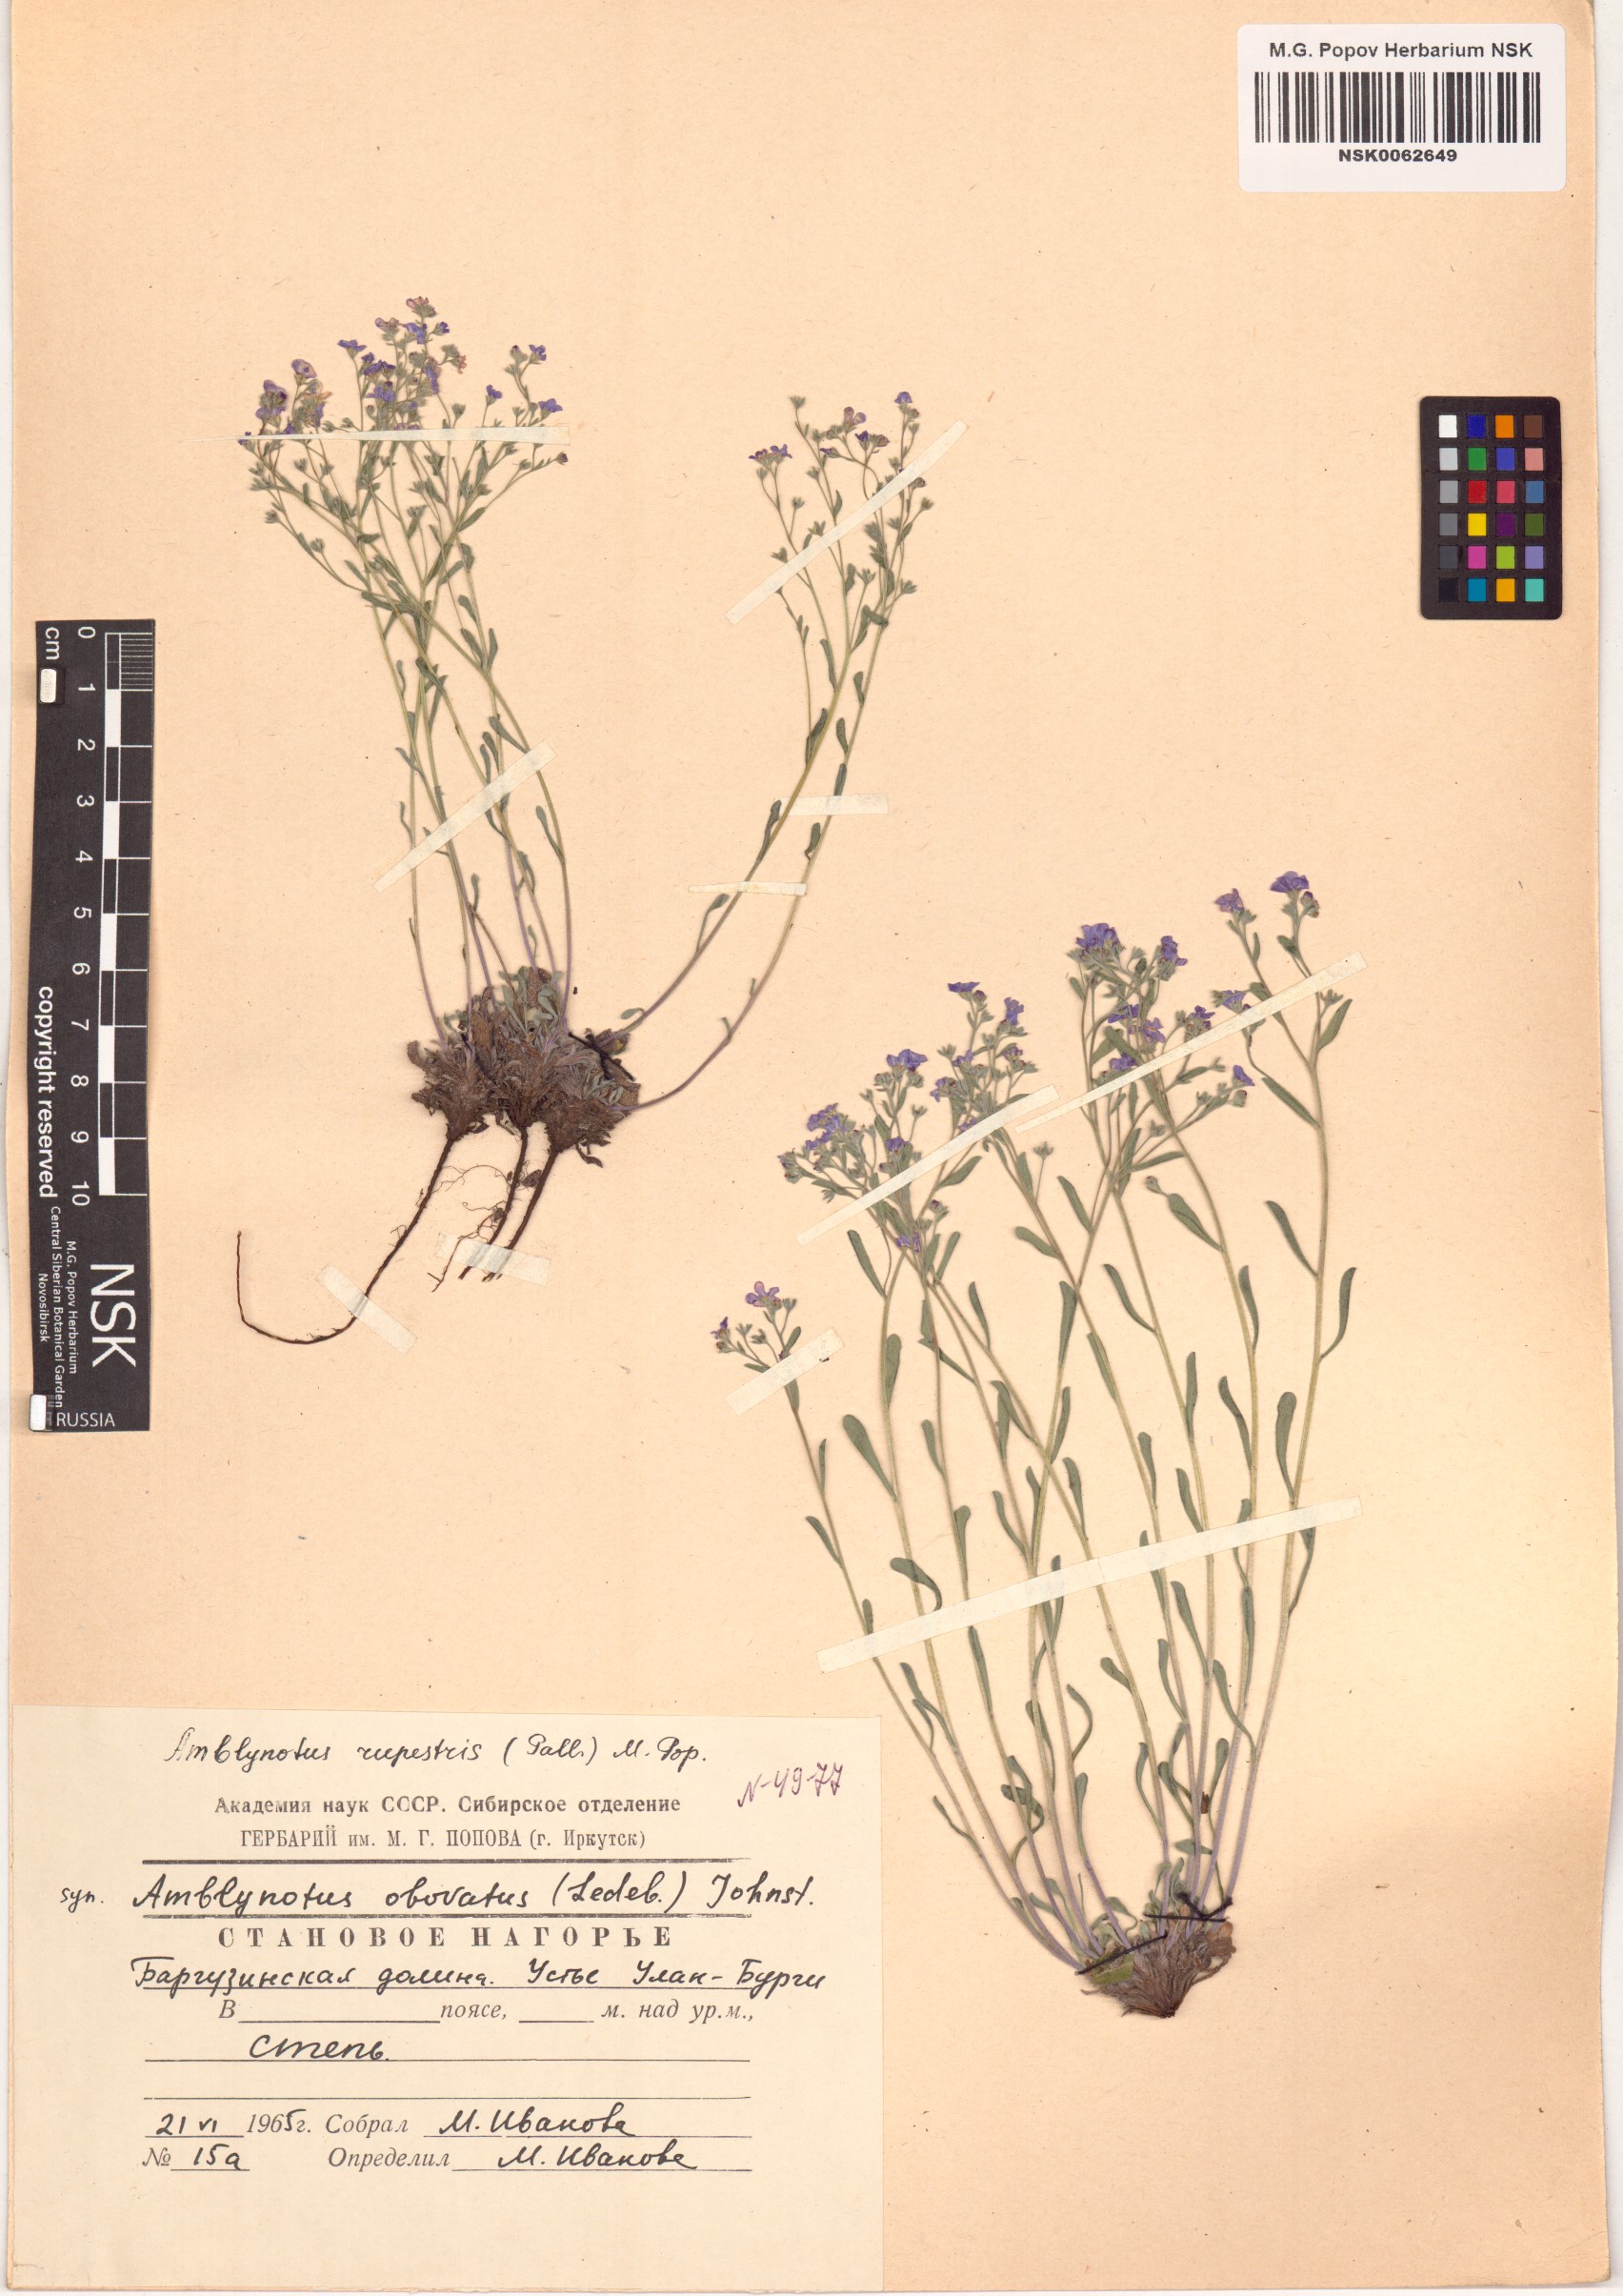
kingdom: Plantae
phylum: Tracheophyta
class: Magnoliopsida
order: Boraginales
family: Boraginaceae
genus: Eritrichium
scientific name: Eritrichium rupestre
